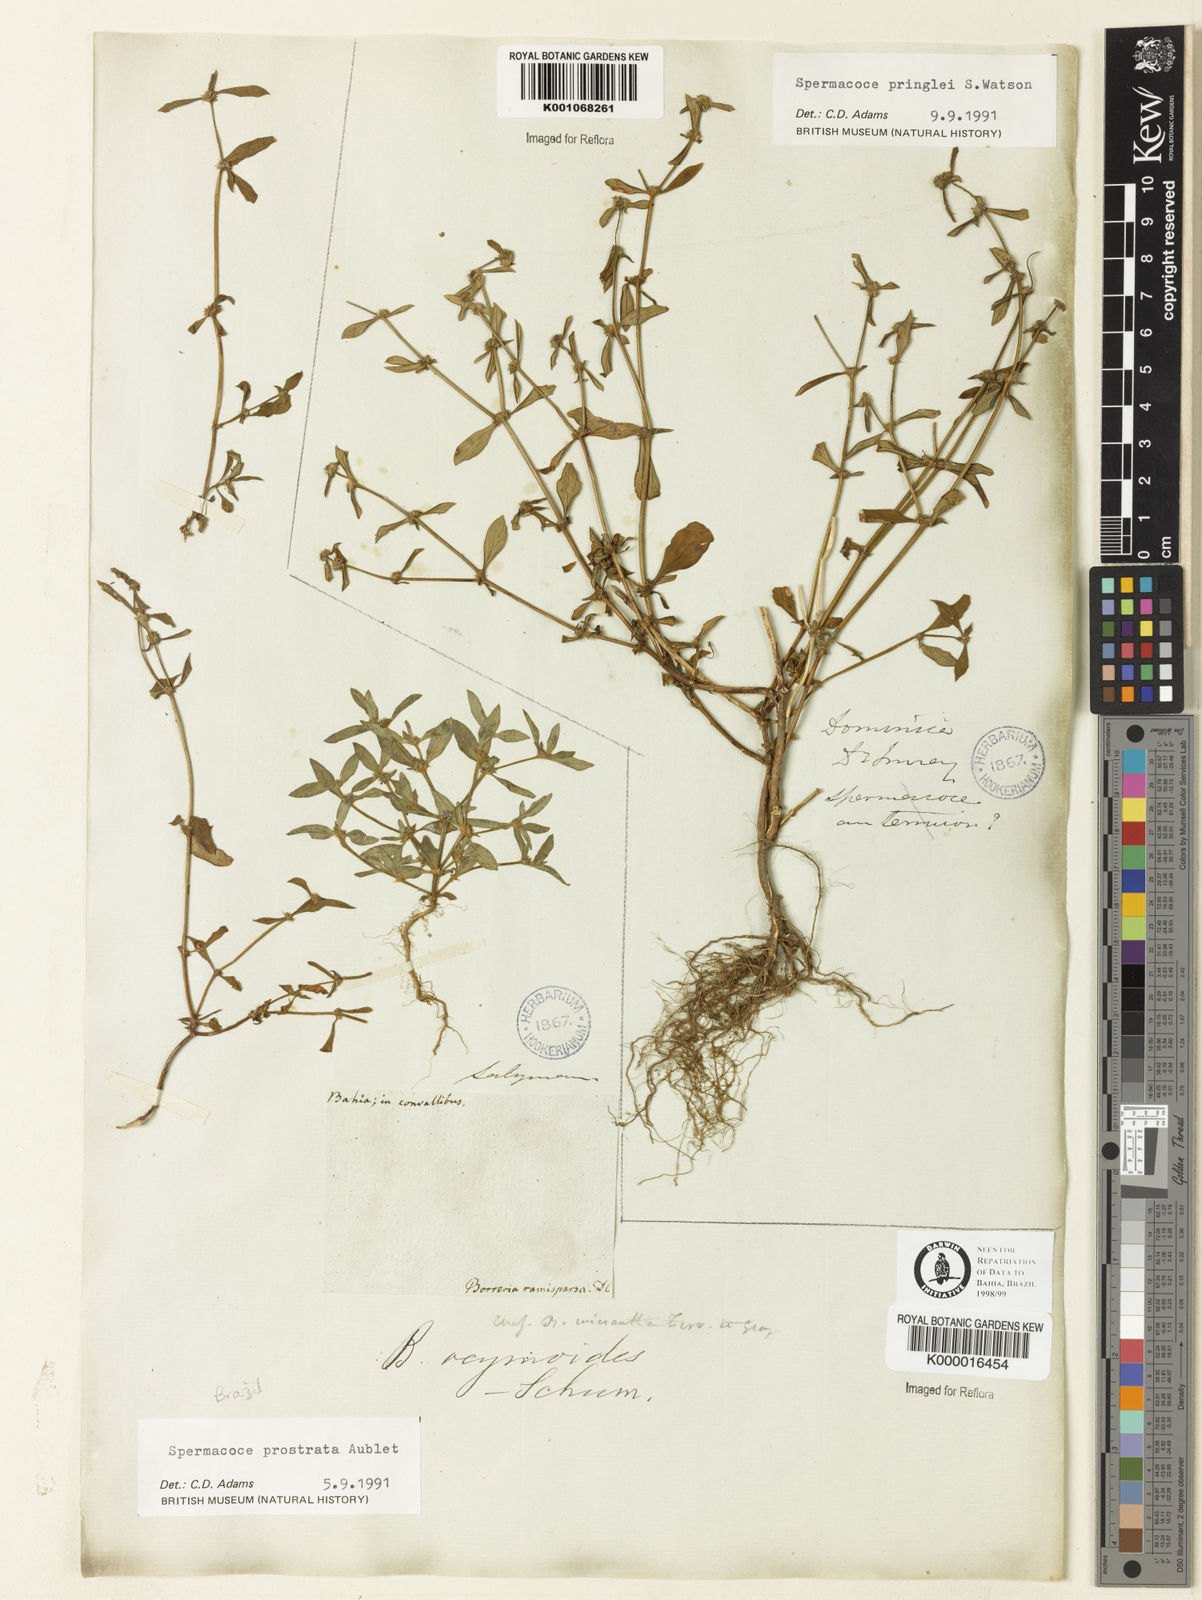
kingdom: Plantae
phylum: Tracheophyta
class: Magnoliopsida
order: Gentianales
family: Rubiaceae
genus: Spermacoce
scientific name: Spermacoce prostrata
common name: Prostrate false buttonweed
